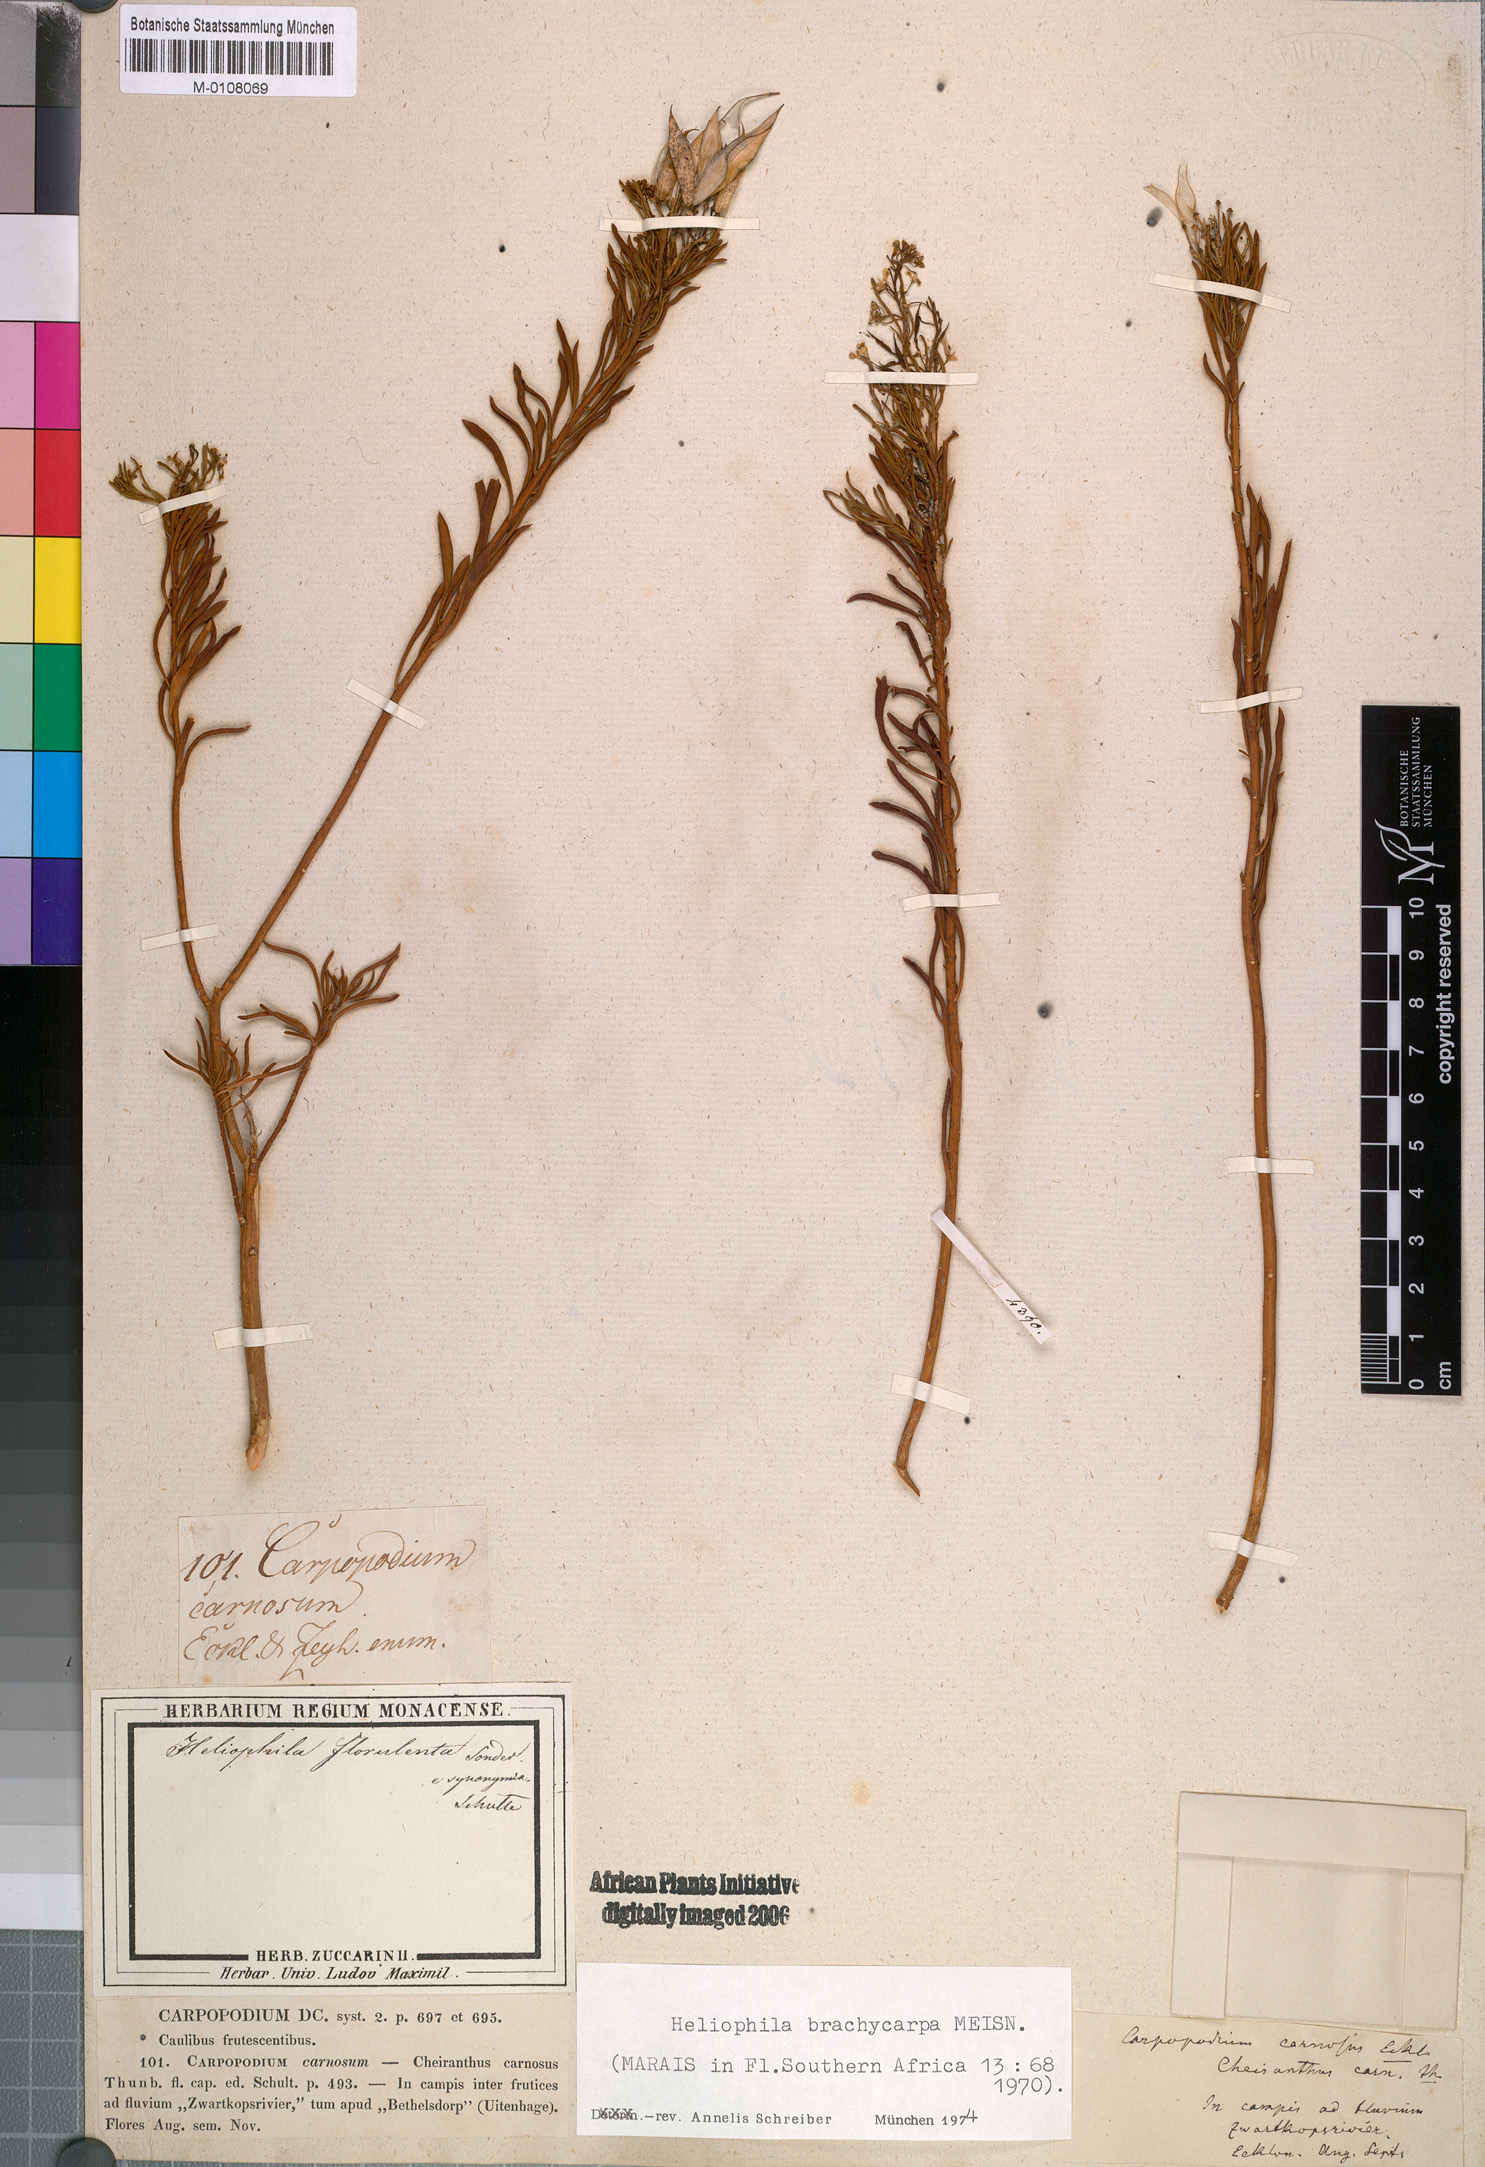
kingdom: Plantae
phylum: Tracheophyta
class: Magnoliopsida
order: Brassicales
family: Brassicaceae
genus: Heliophila
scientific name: Heliophila brachycarpa
